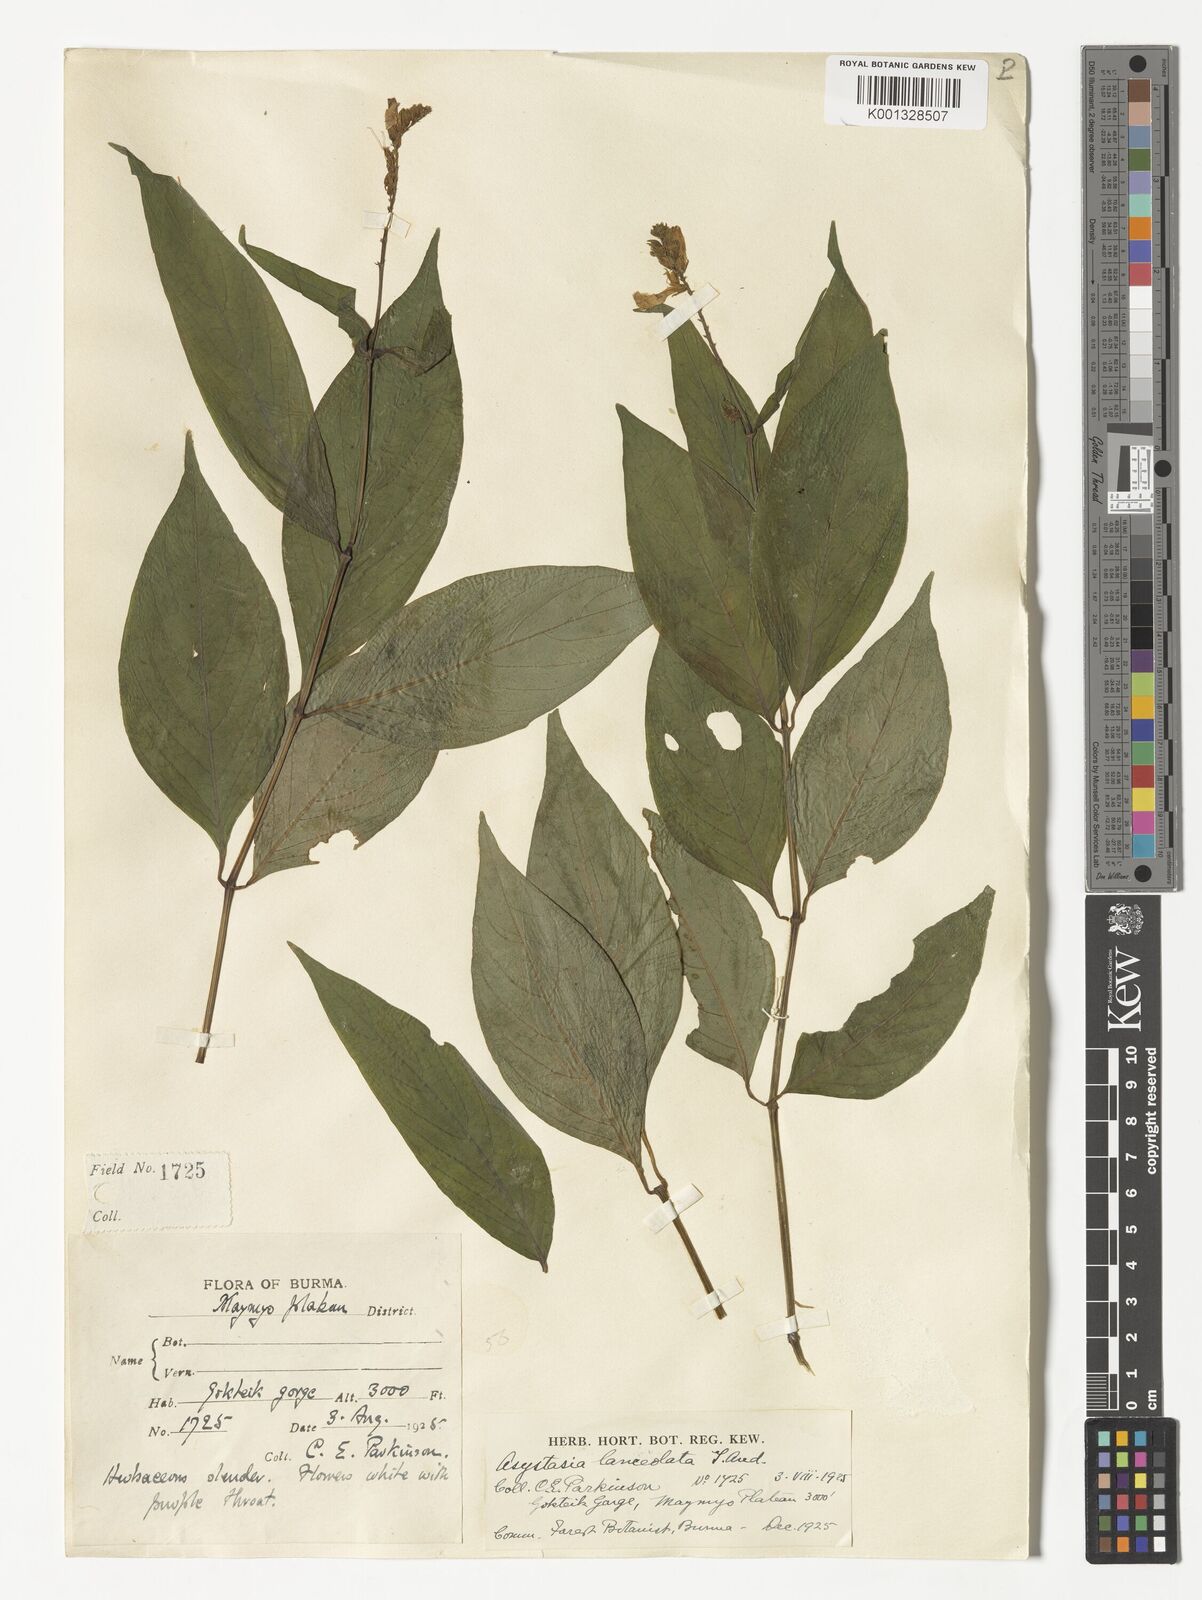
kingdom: Plantae
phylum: Tracheophyta
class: Magnoliopsida
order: Lamiales
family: Acanthaceae
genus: Asystasia
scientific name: Asystasia nemorum
